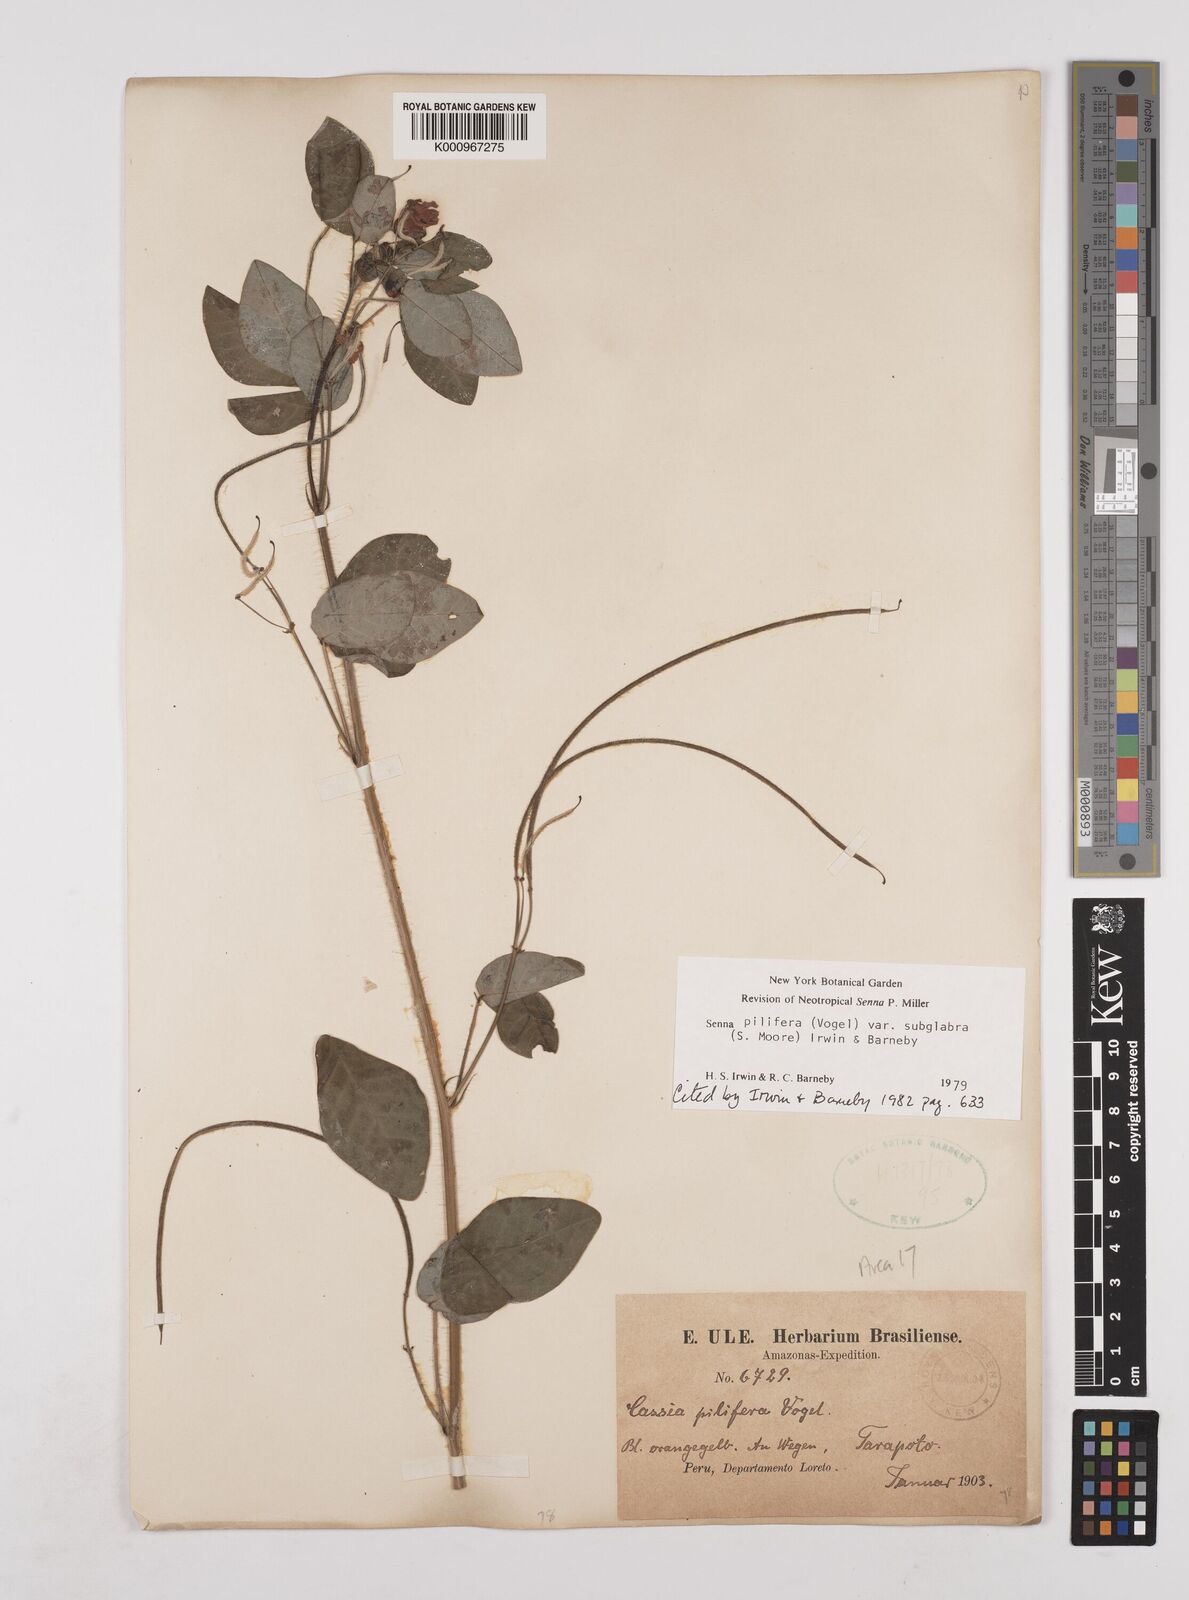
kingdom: Plantae
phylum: Tracheophyta
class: Magnoliopsida
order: Fabales
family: Fabaceae
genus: Senna
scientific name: Senna pilifera
